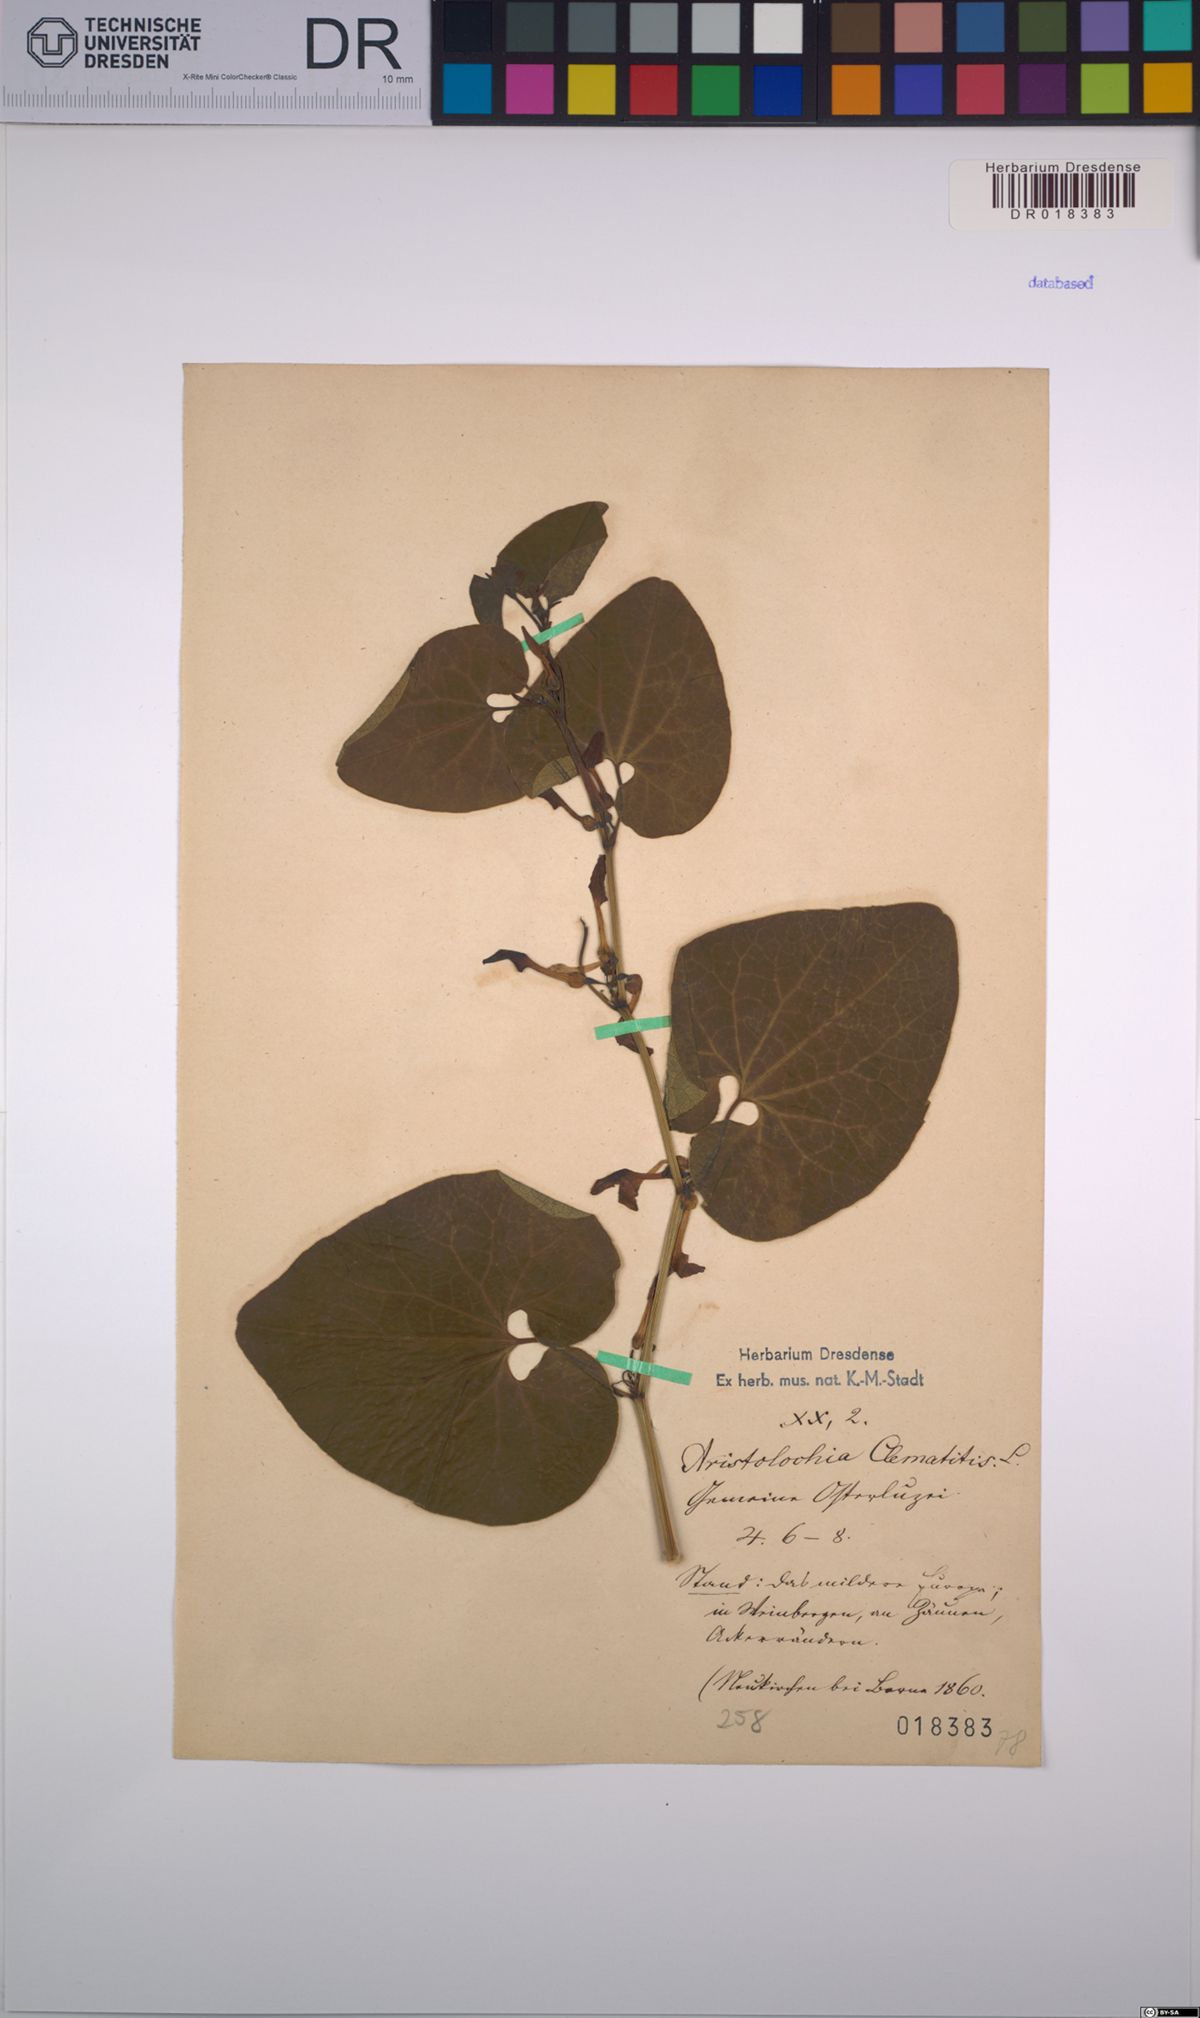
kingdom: Plantae
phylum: Tracheophyta
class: Magnoliopsida
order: Piperales
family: Aristolochiaceae
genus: Aristolochia
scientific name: Aristolochia clematitis
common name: Birthwort
